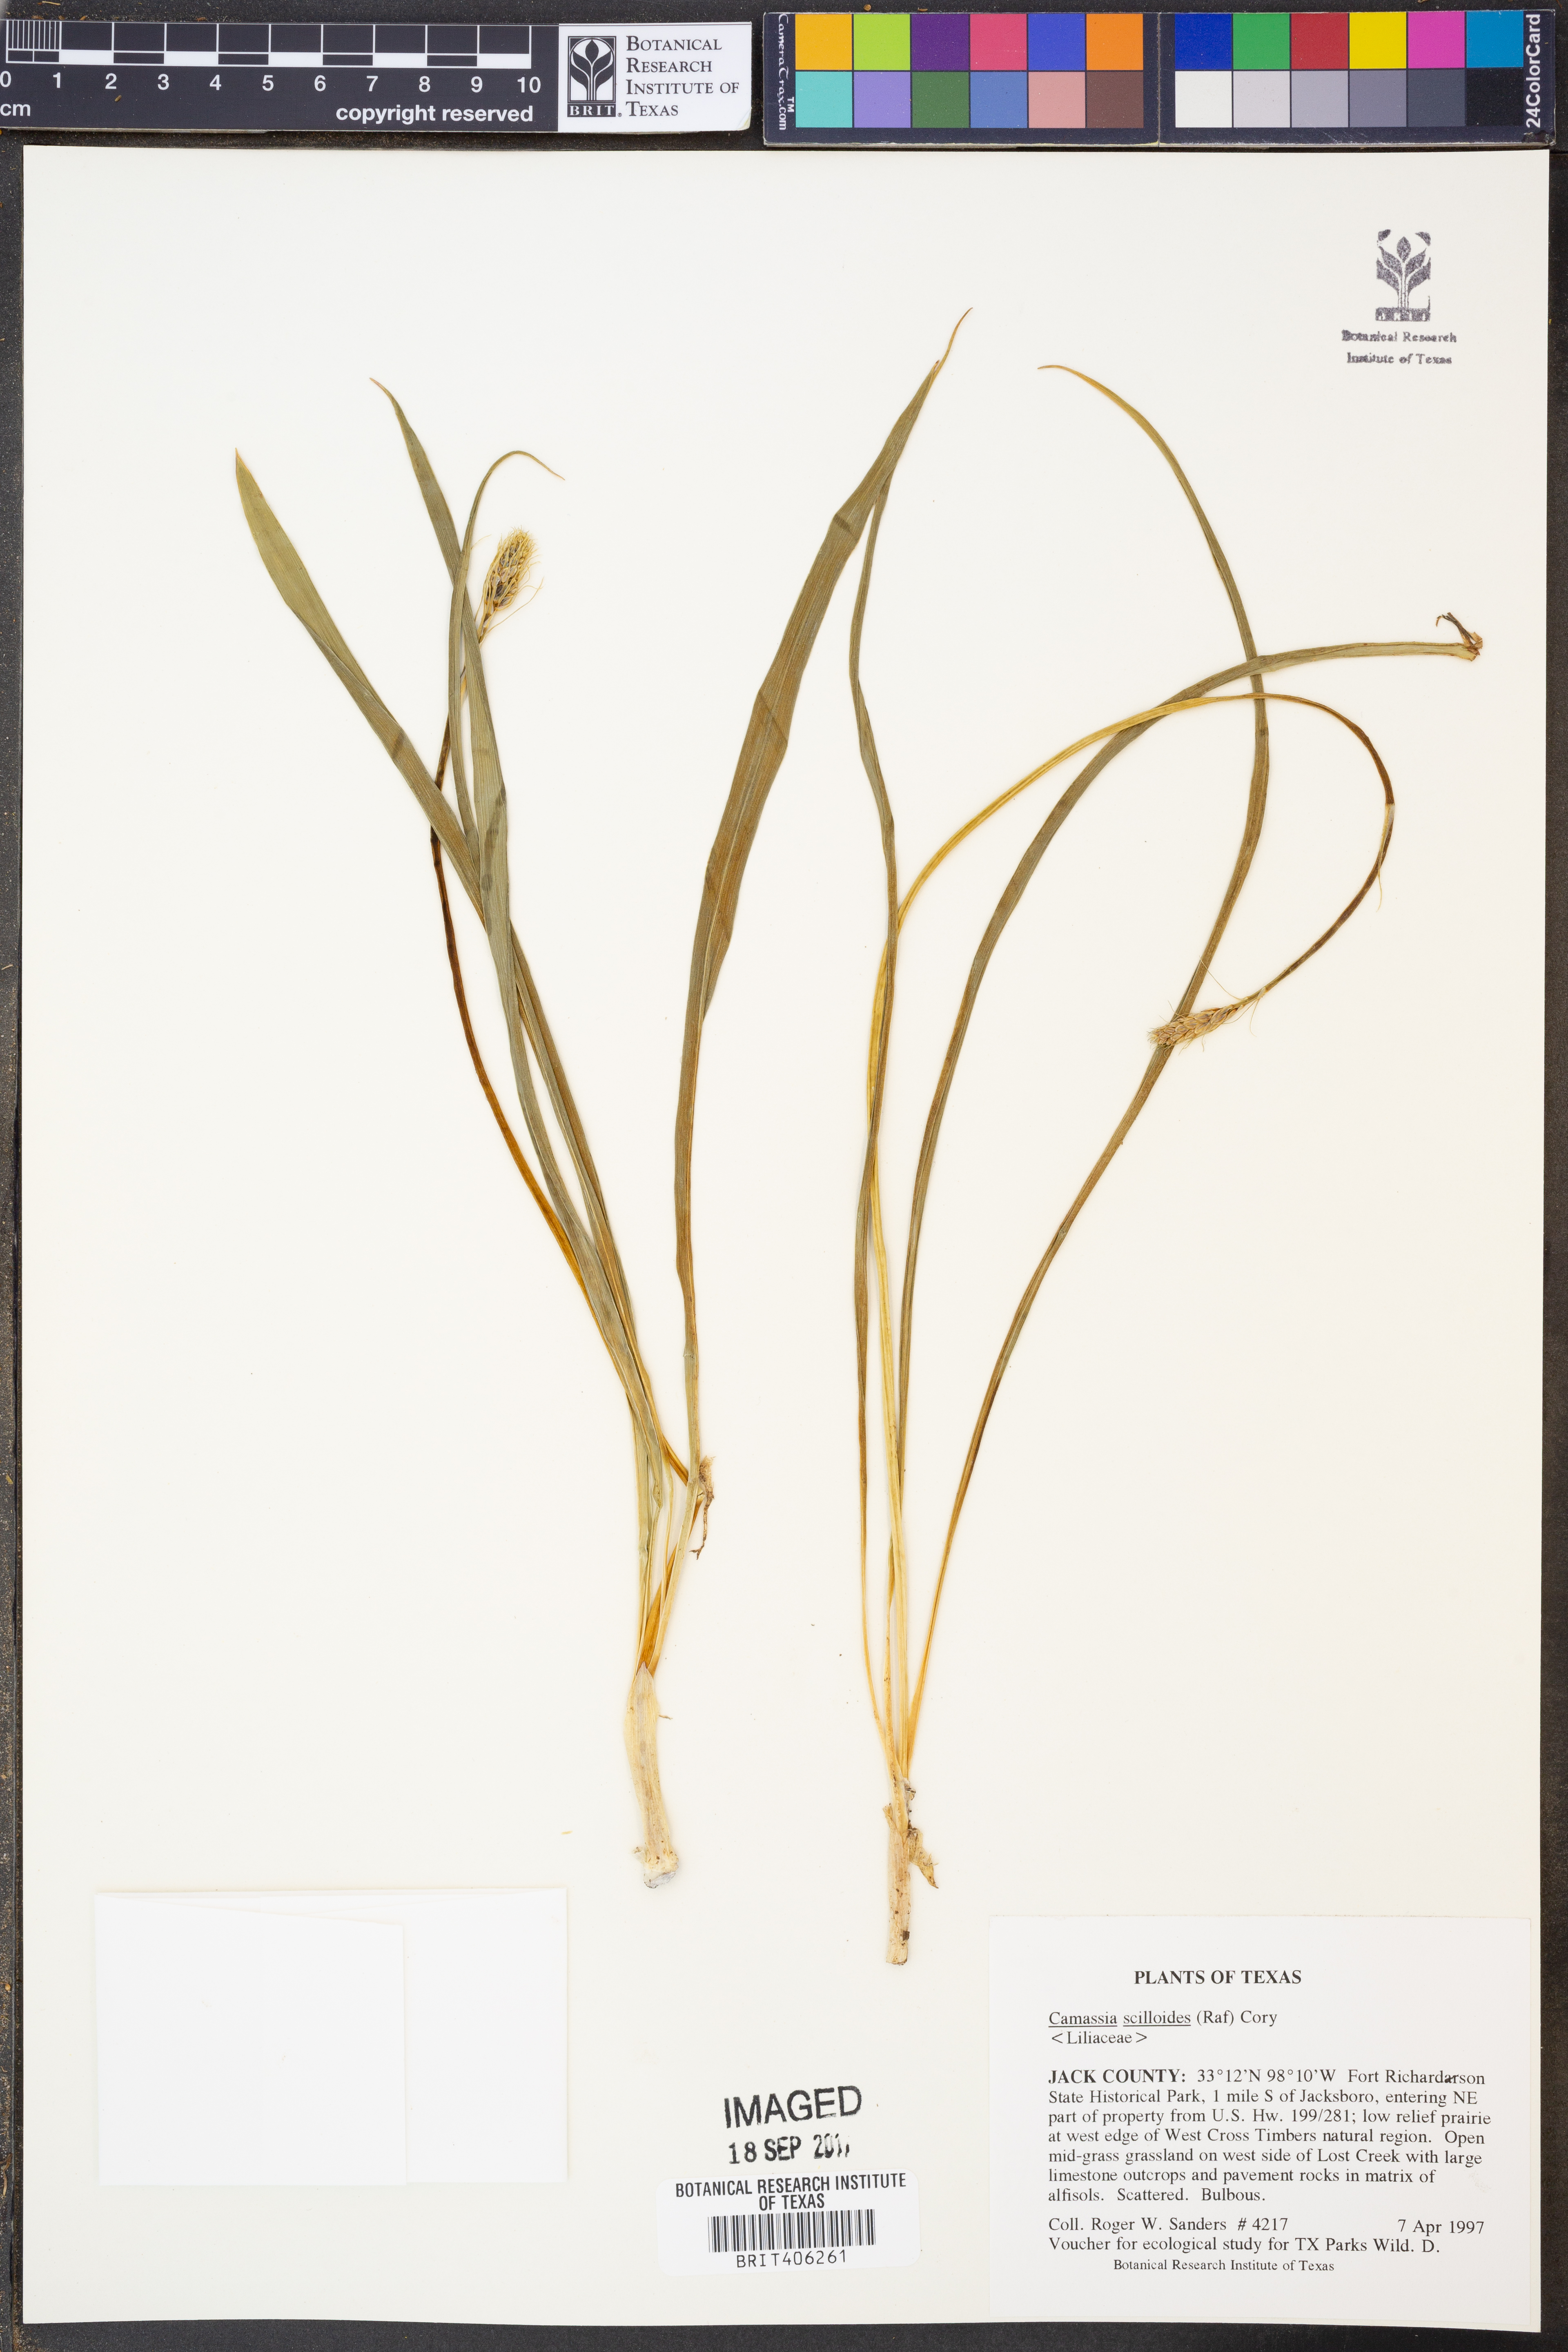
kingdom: Plantae
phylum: Tracheophyta
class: Liliopsida
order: Asparagales
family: Asparagaceae
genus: Camassia
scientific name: Camassia scilloides
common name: Wild hyacinth
